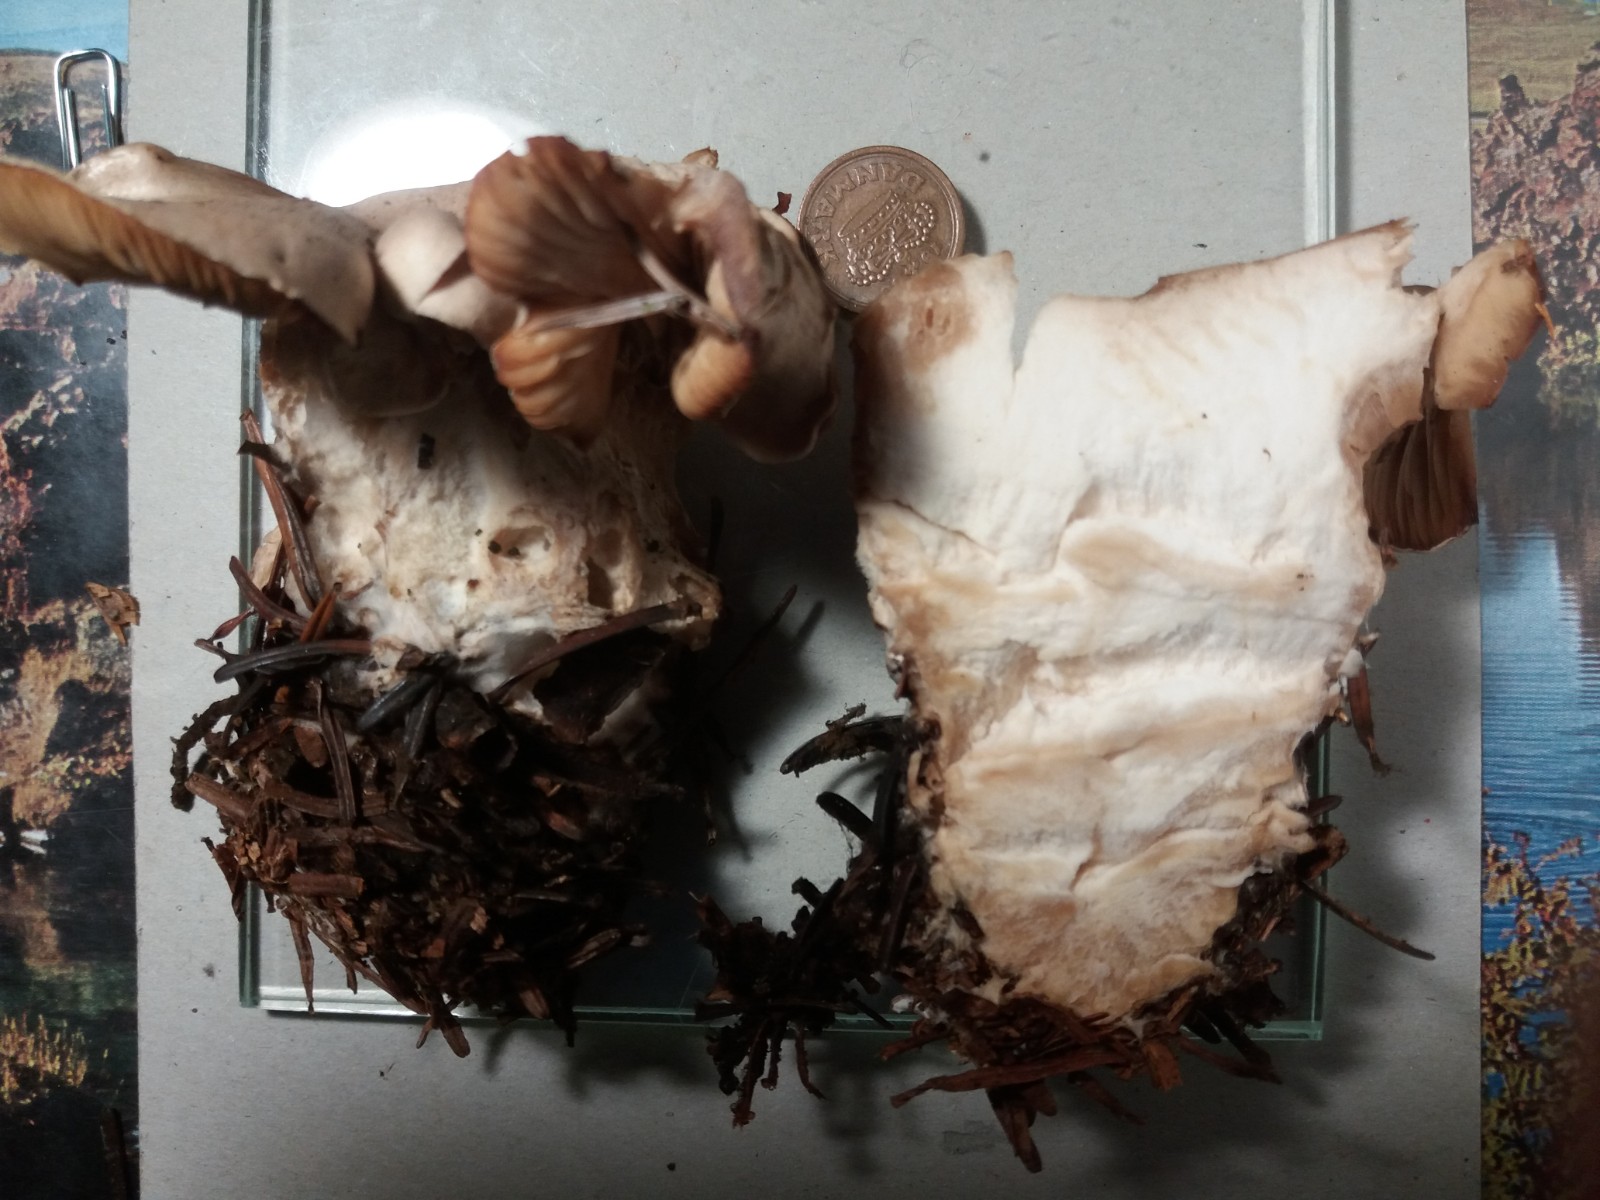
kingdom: Fungi
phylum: Basidiomycota
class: Agaricomycetes
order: Agaricales
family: Pseudoclitocybaceae
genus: Clitopaxillus
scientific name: Clitopaxillus fibulatus
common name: bestøvlet tragthat
